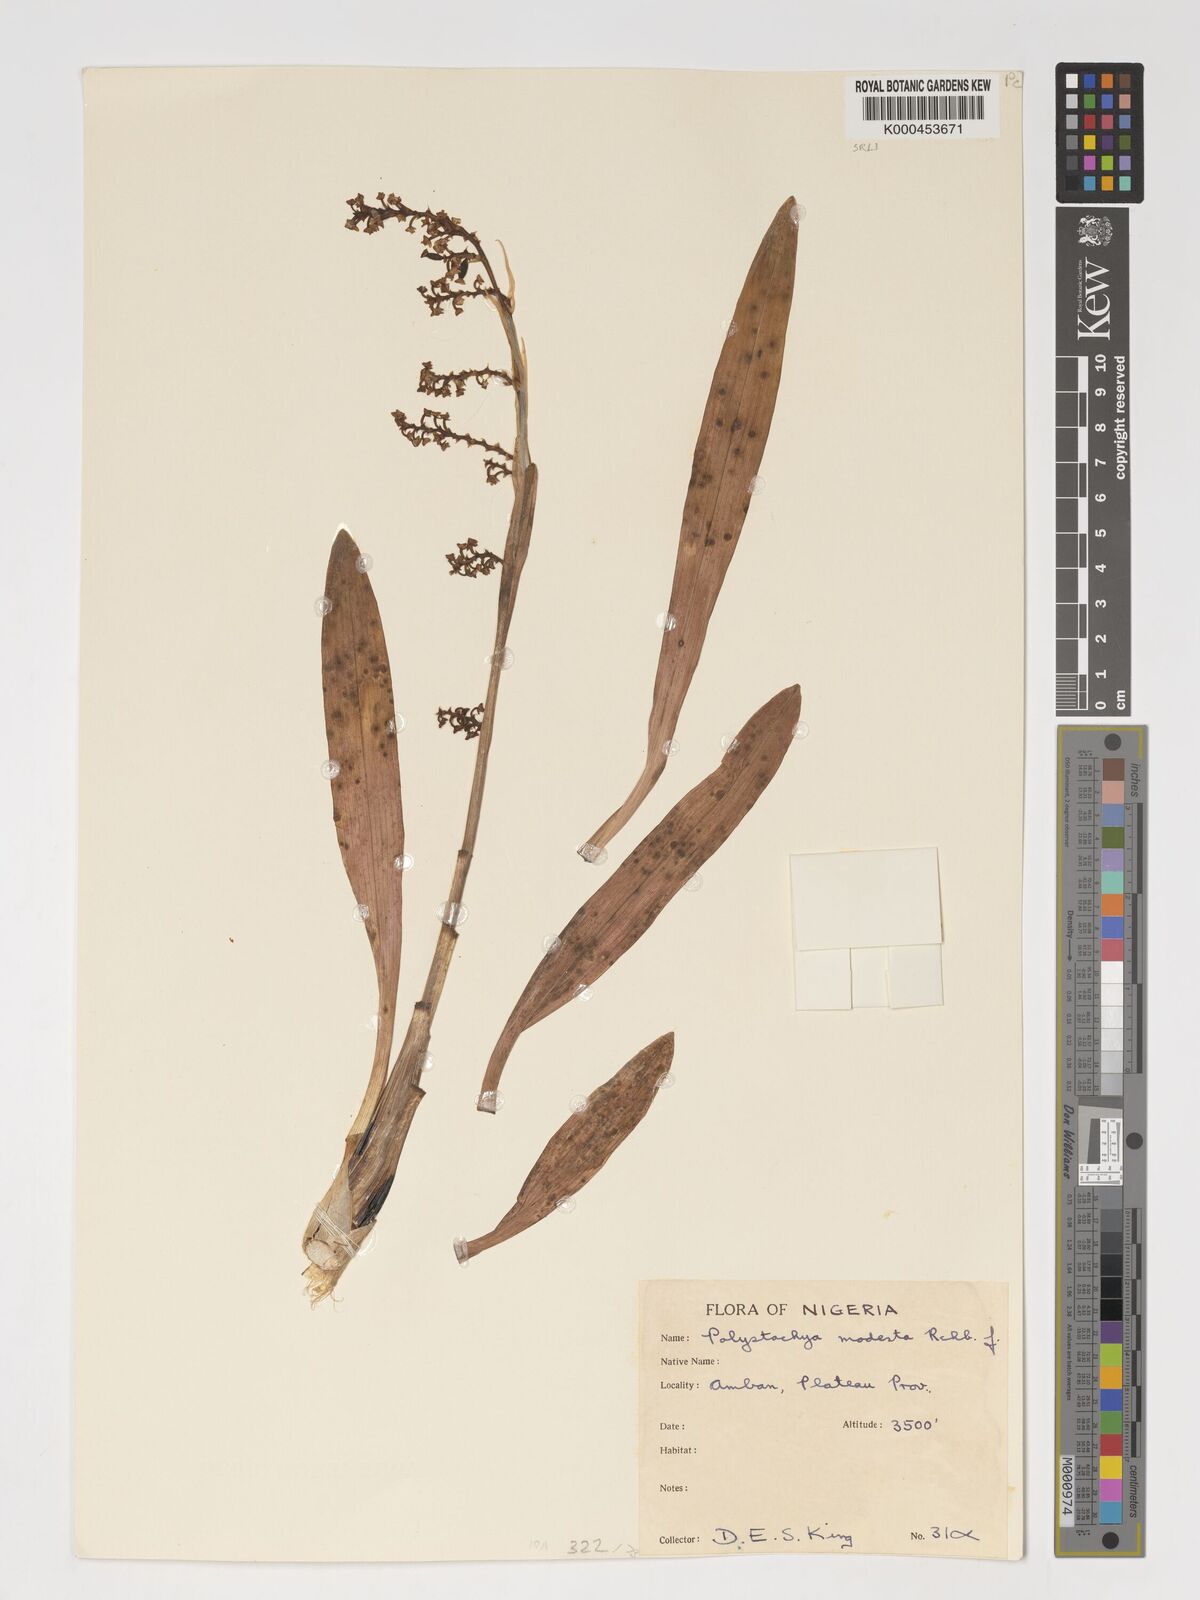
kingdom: Plantae
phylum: Tracheophyta
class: Liliopsida
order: Asparagales
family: Orchidaceae
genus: Polystachya
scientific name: Polystachya modesta
